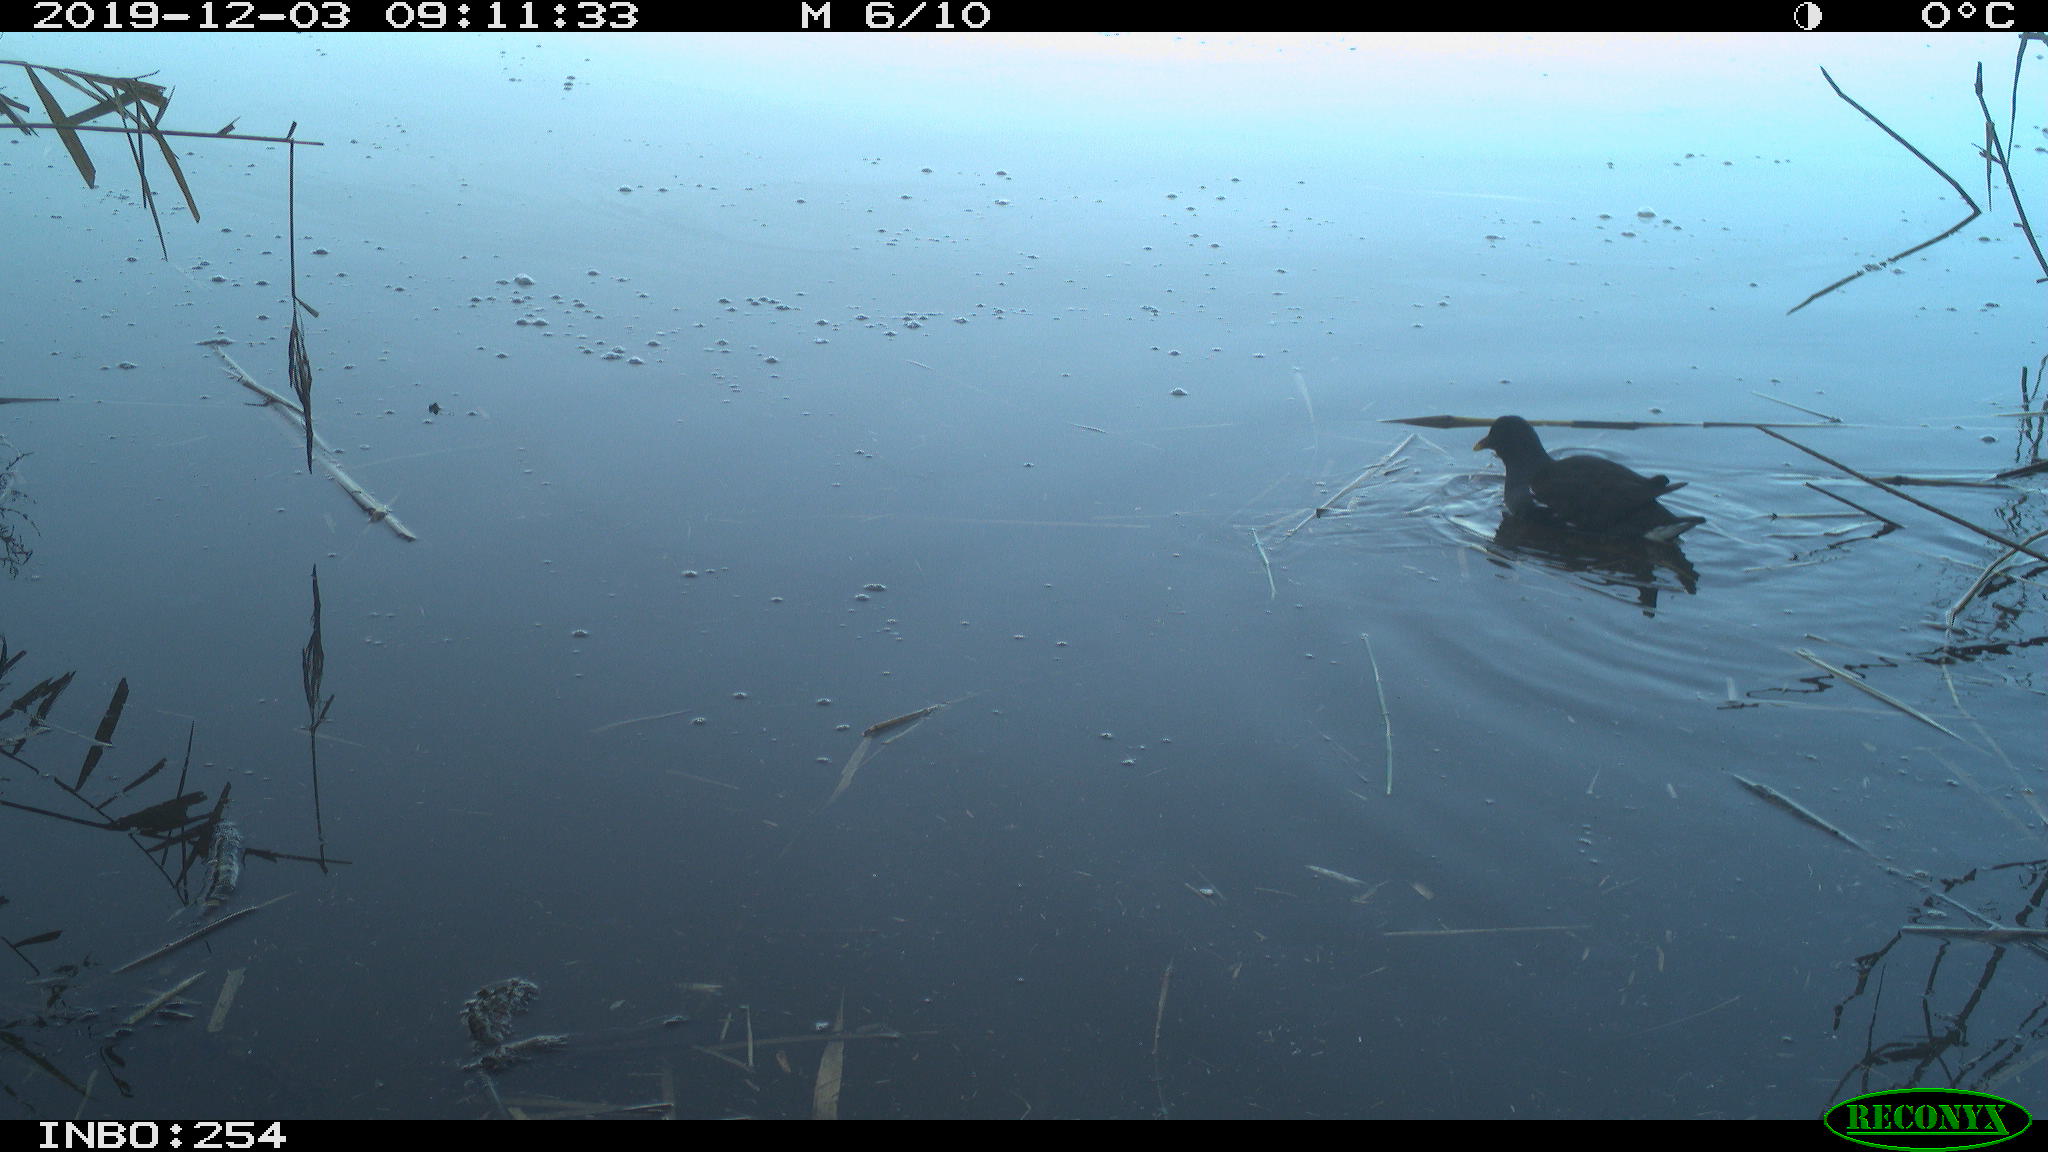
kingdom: Animalia
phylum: Chordata
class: Aves
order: Gruiformes
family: Rallidae
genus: Gallinula
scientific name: Gallinula chloropus
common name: Common moorhen
